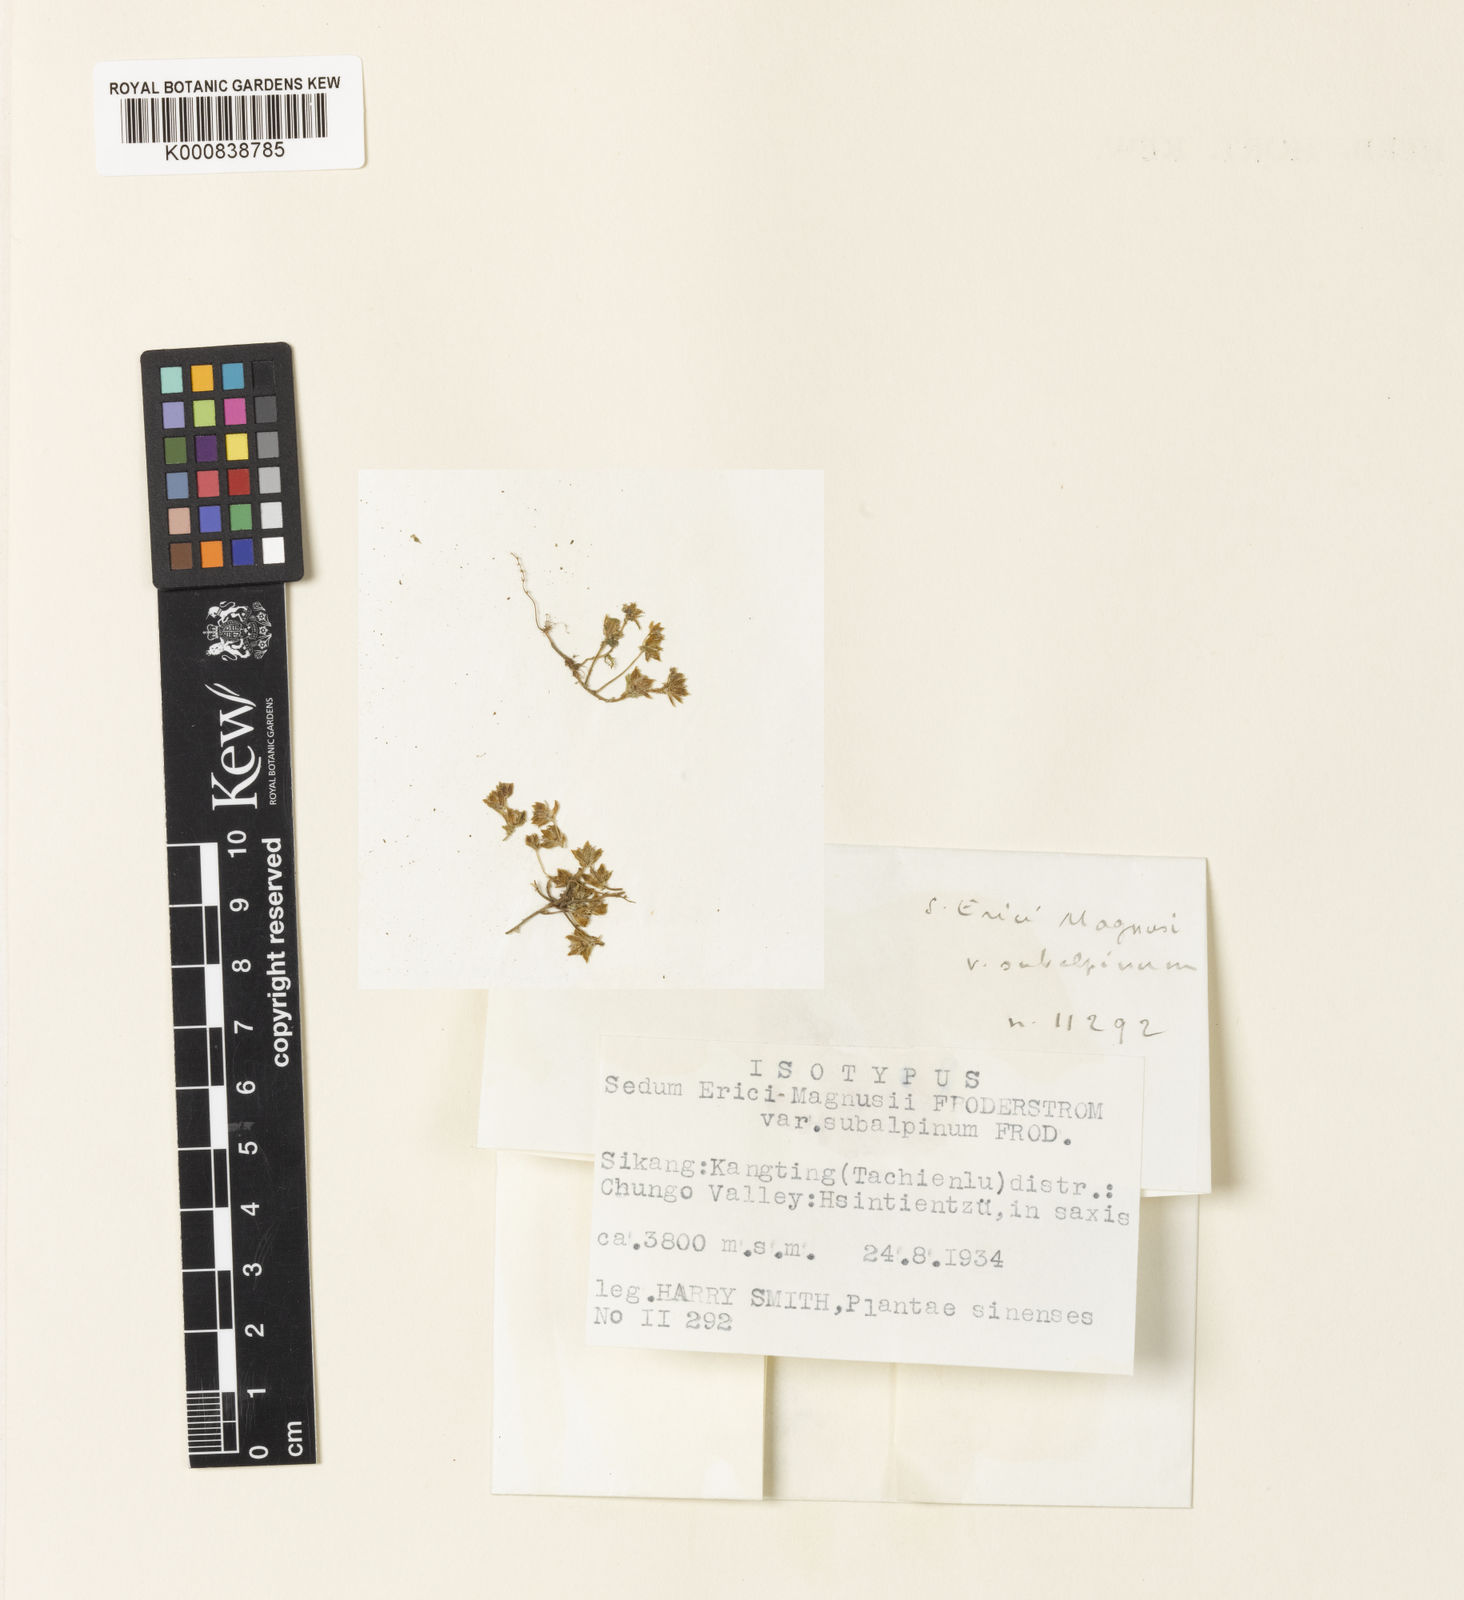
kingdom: Plantae
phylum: Tracheophyta
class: Magnoliopsida
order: Saxifragales
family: Crassulaceae
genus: Sedum
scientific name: Sedum
